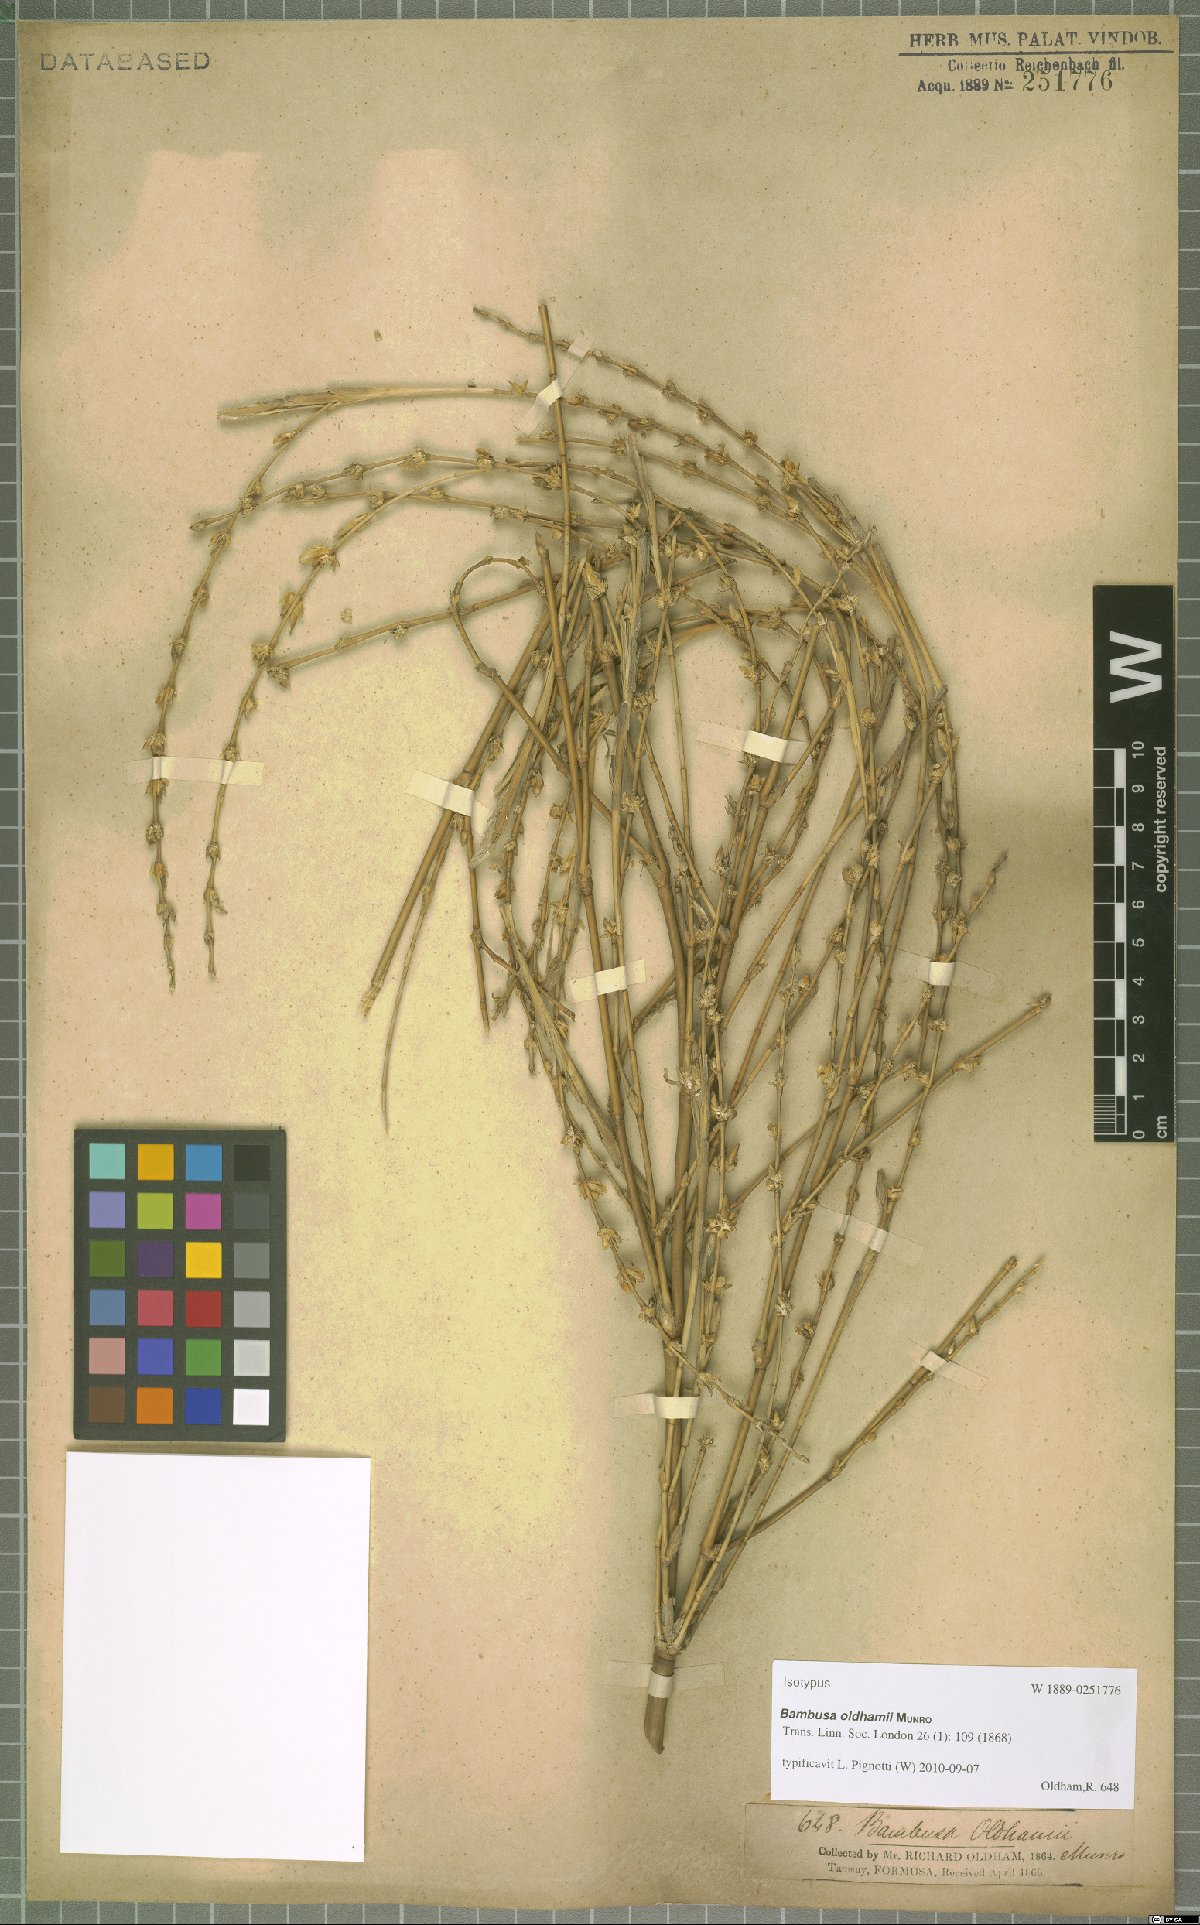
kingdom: Plantae
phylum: Tracheophyta
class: Liliopsida
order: Poales
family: Poaceae
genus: Bambusa
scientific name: Bambusa oldhamii
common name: Giant timber bamboo
